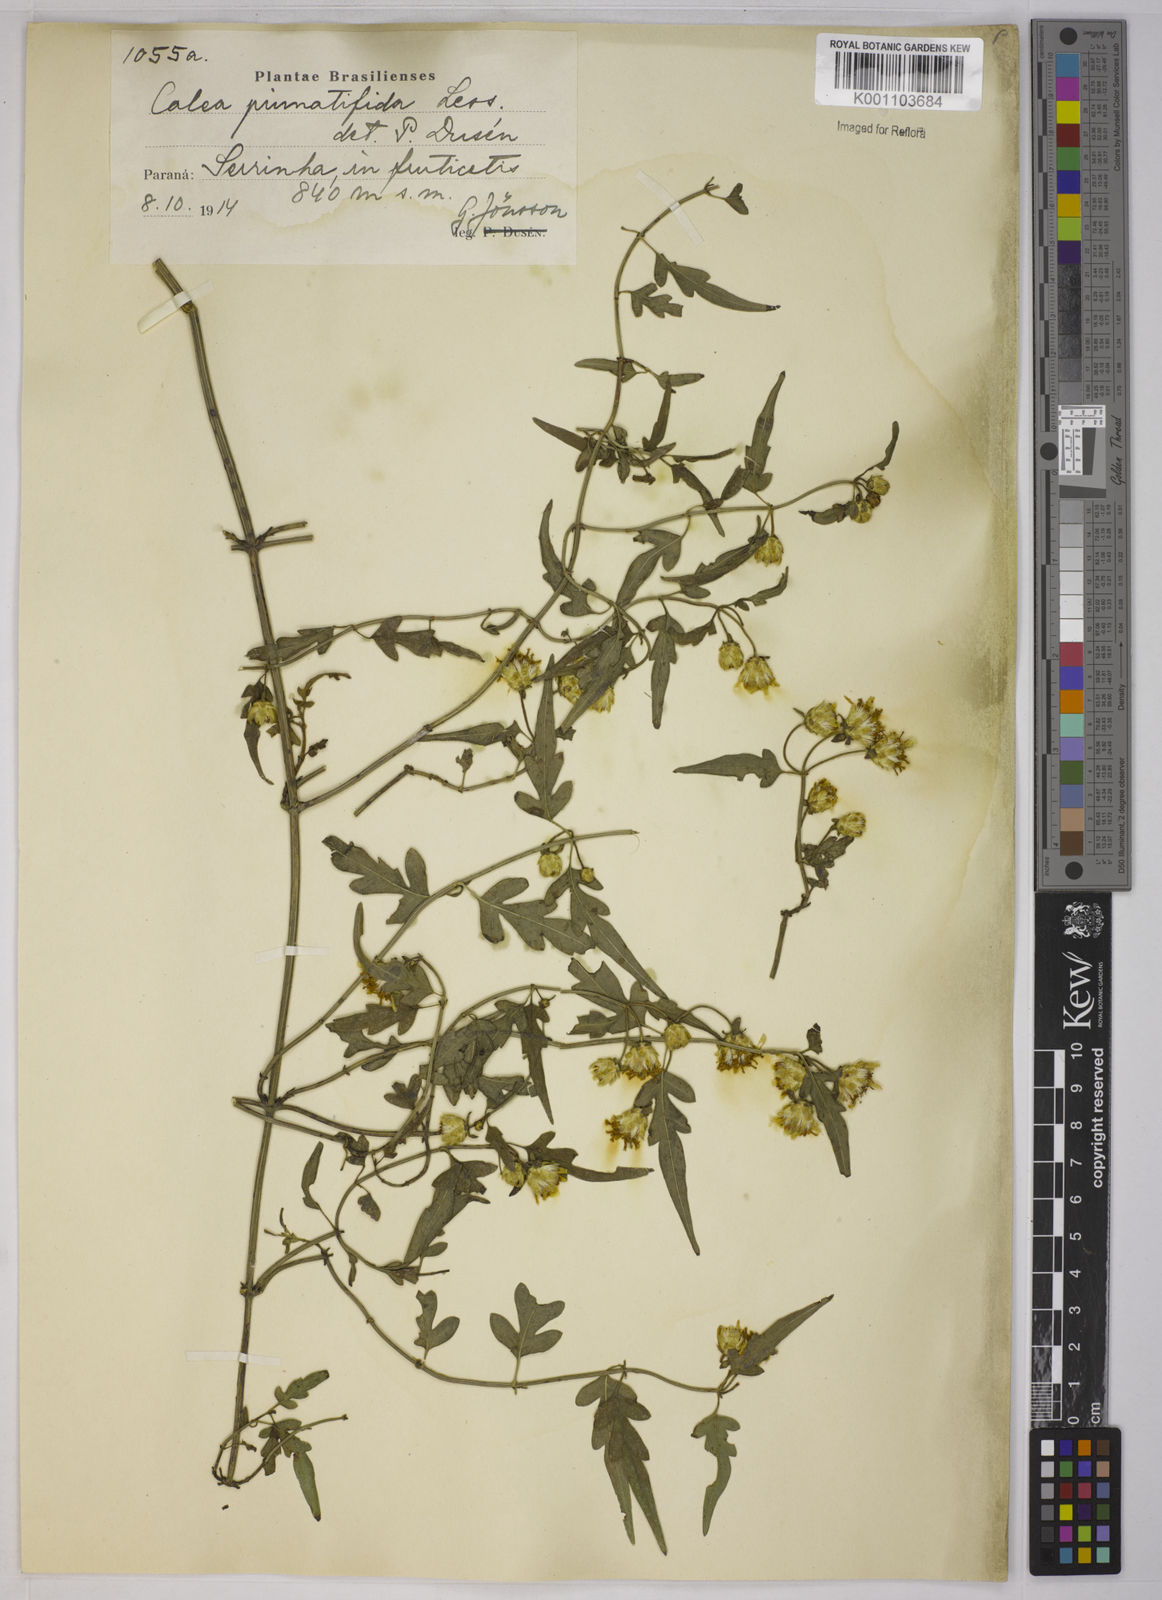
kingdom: Plantae
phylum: Tracheophyta
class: Magnoliopsida
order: Asterales
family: Asteraceae
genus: Calea
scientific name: Calea
